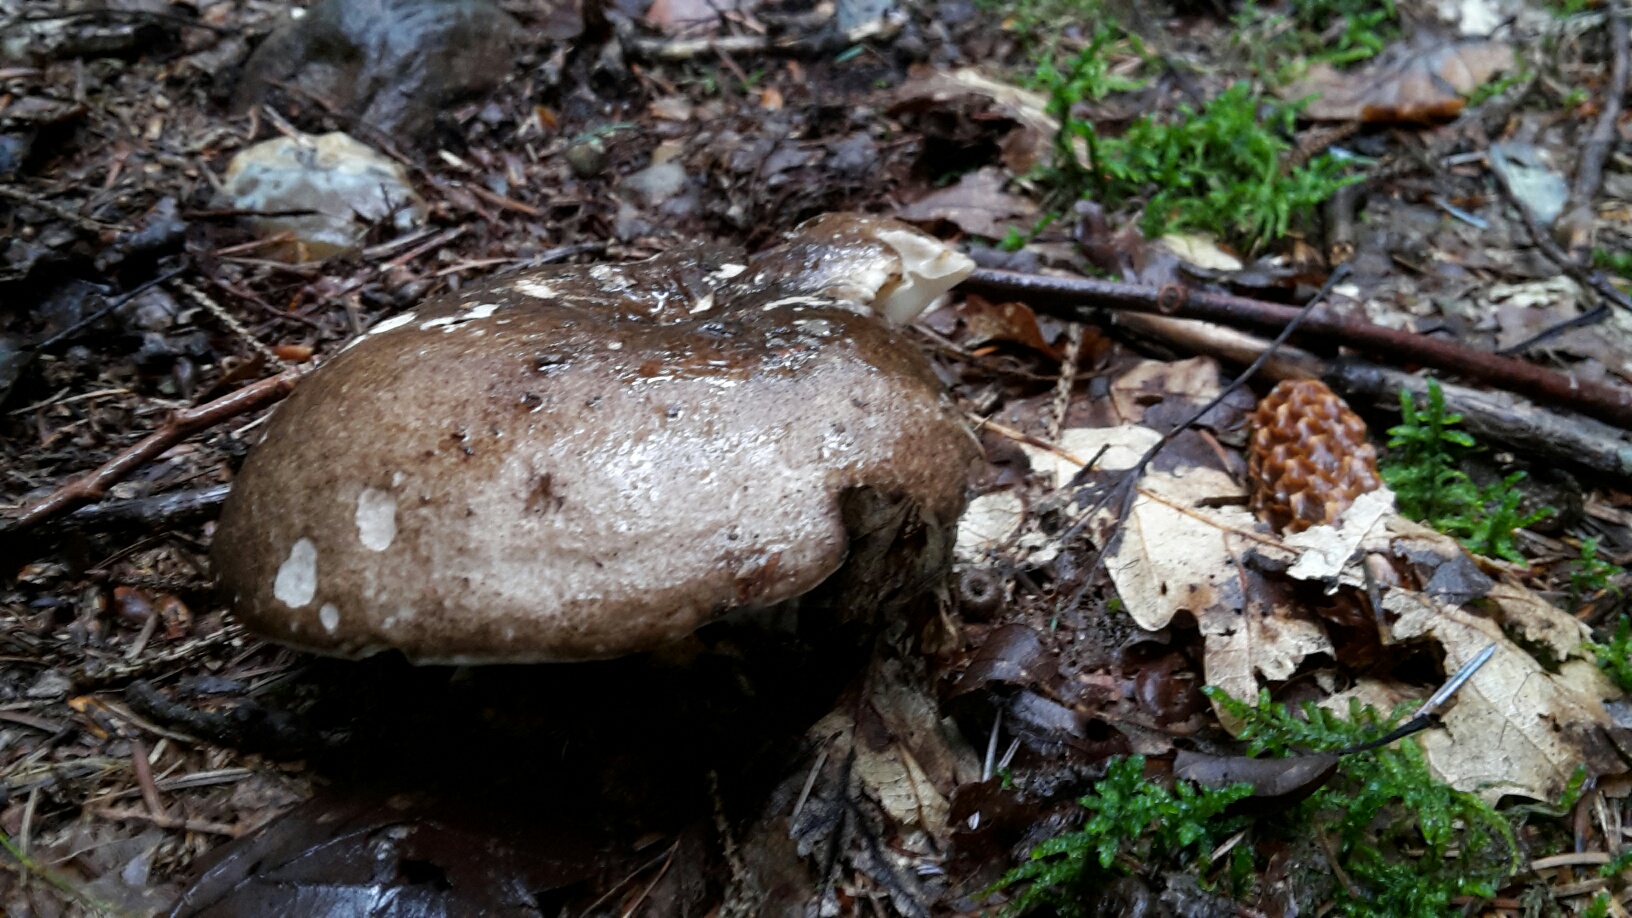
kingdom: Fungi
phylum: Basidiomycota
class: Agaricomycetes
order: Russulales
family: Russulaceae
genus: Russula
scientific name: Russula adusta
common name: sværtende skørhat
